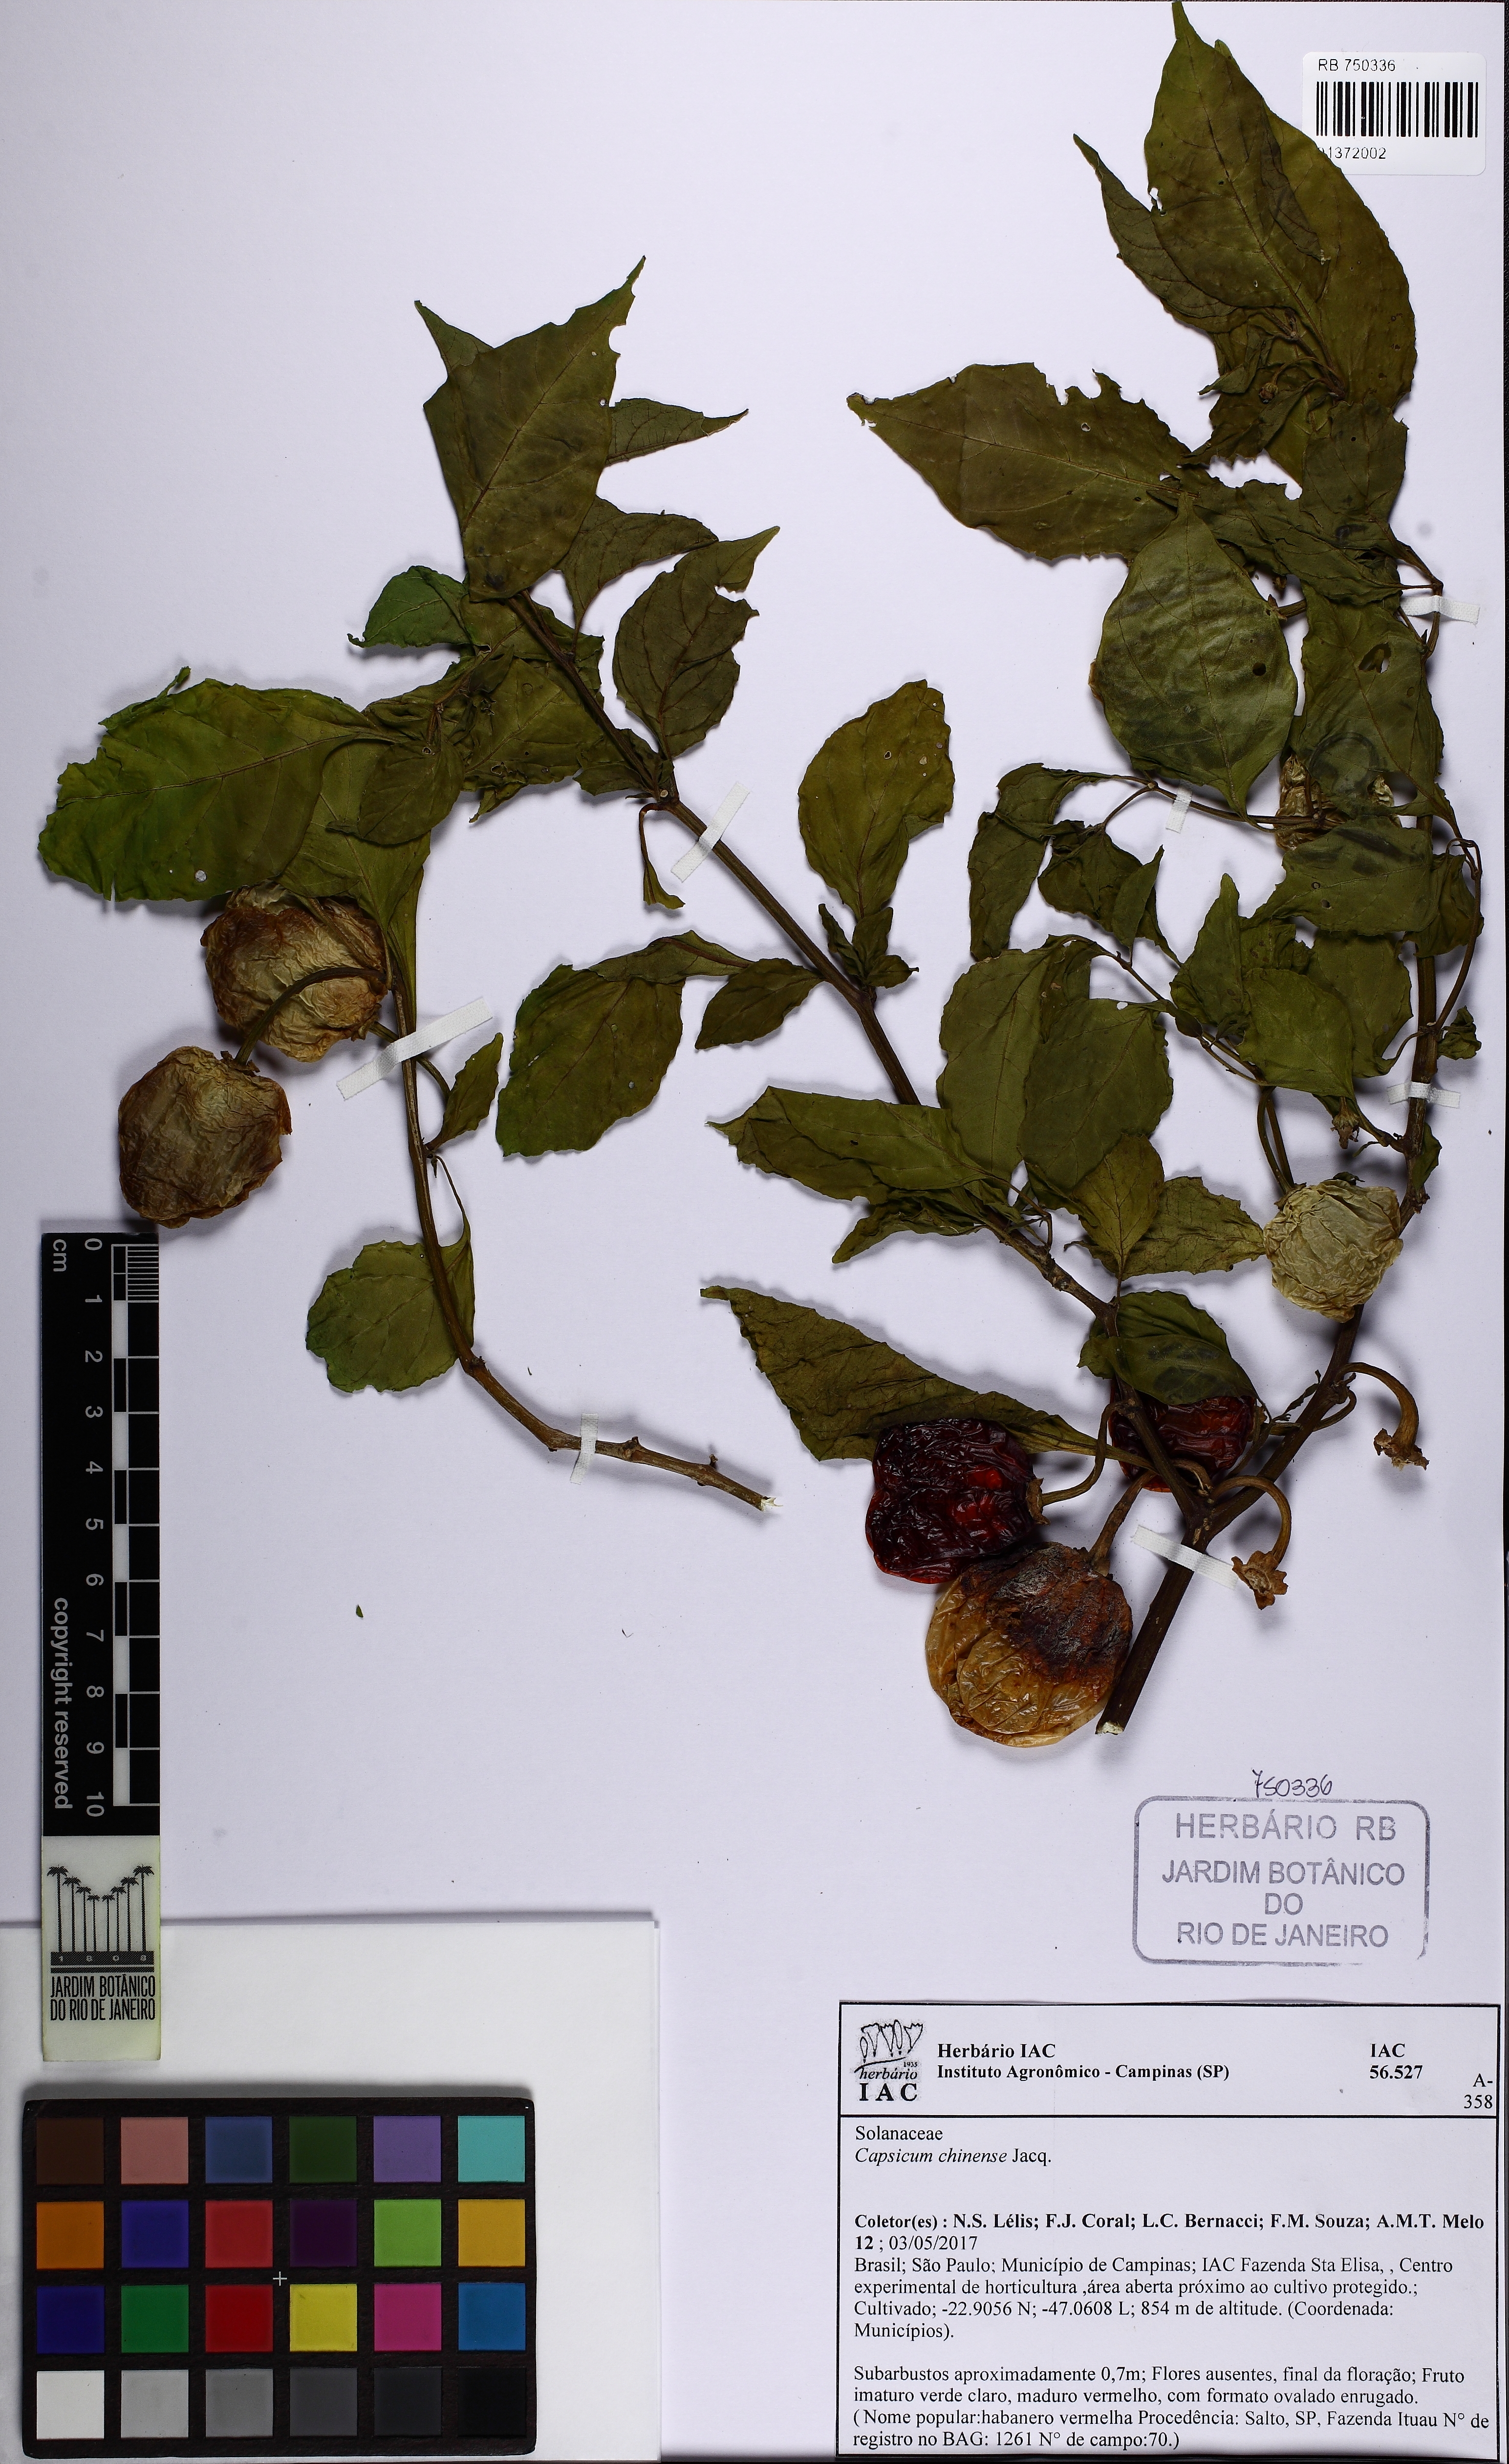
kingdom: Plantae
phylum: Tracheophyta
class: Magnoliopsida
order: Solanales
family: Solanaceae
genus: Capsicum
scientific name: Capsicum chinense
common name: Yellow squash pepper
